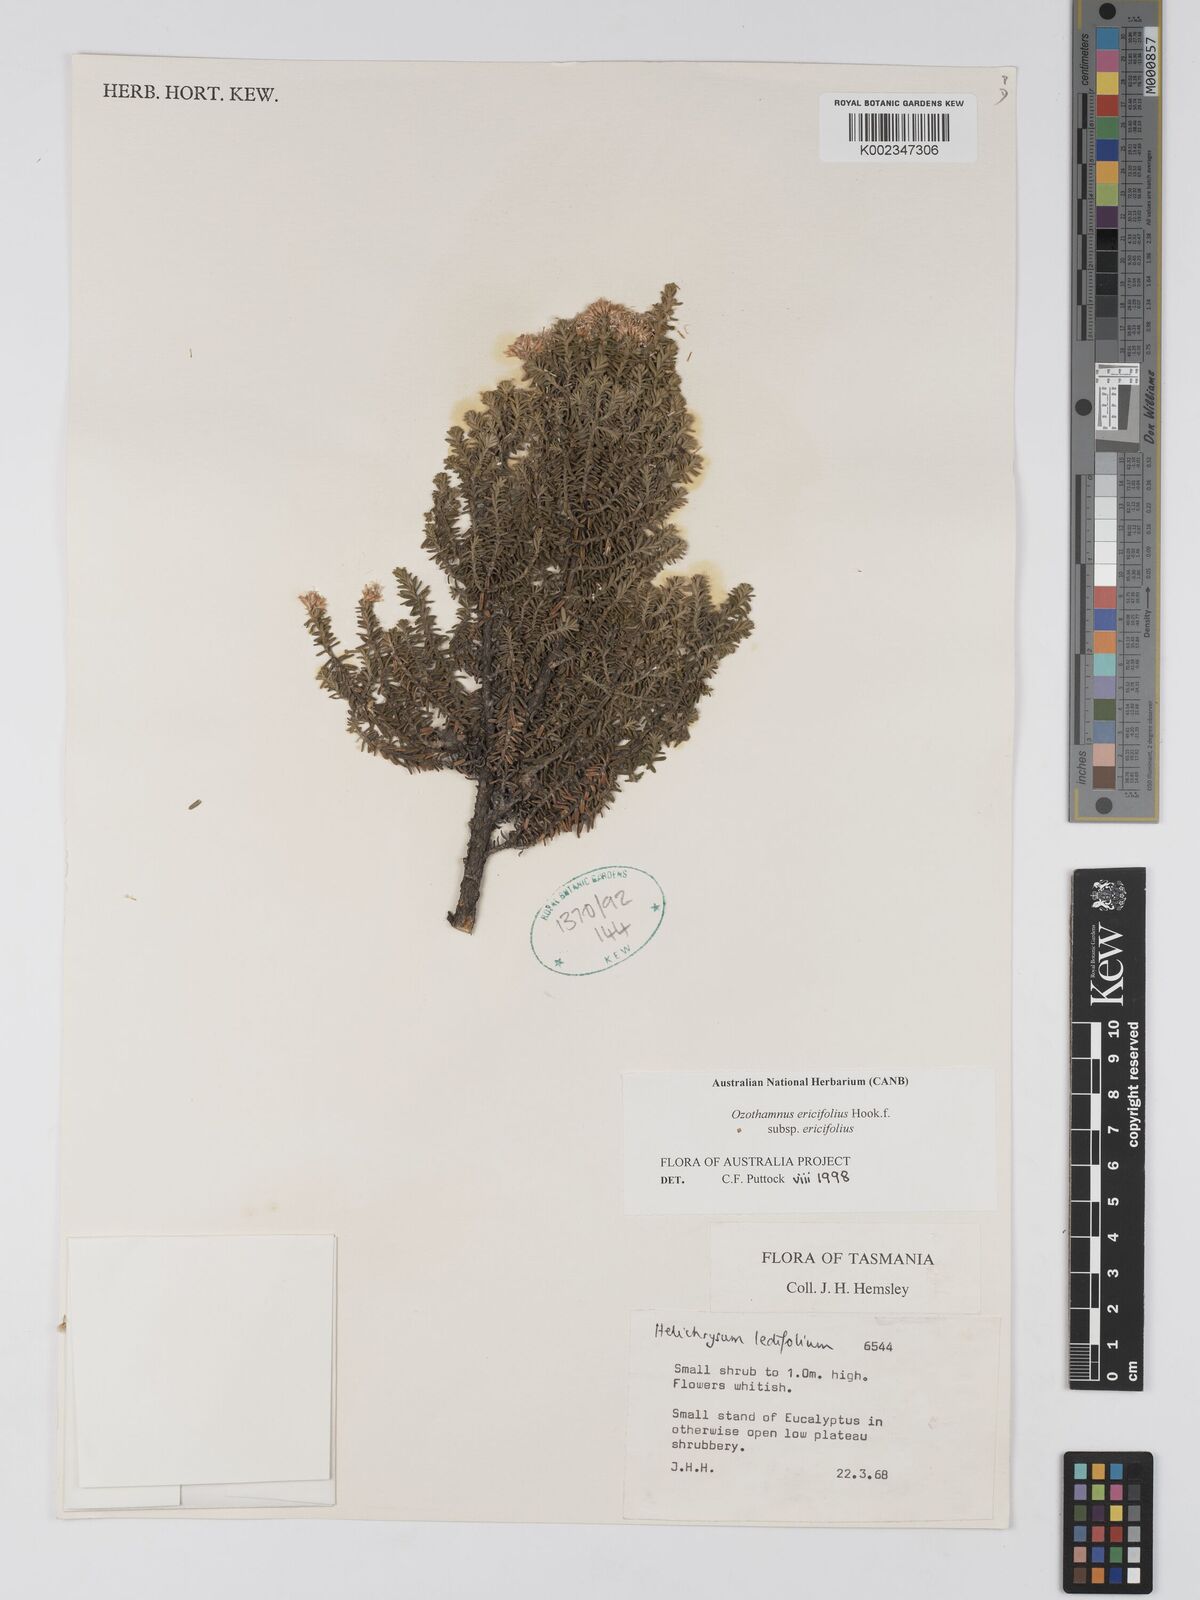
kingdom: Plantae
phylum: Tracheophyta
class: Magnoliopsida
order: Asterales
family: Asteraceae
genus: Ozothamnus
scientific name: Ozothamnus ericifolius
